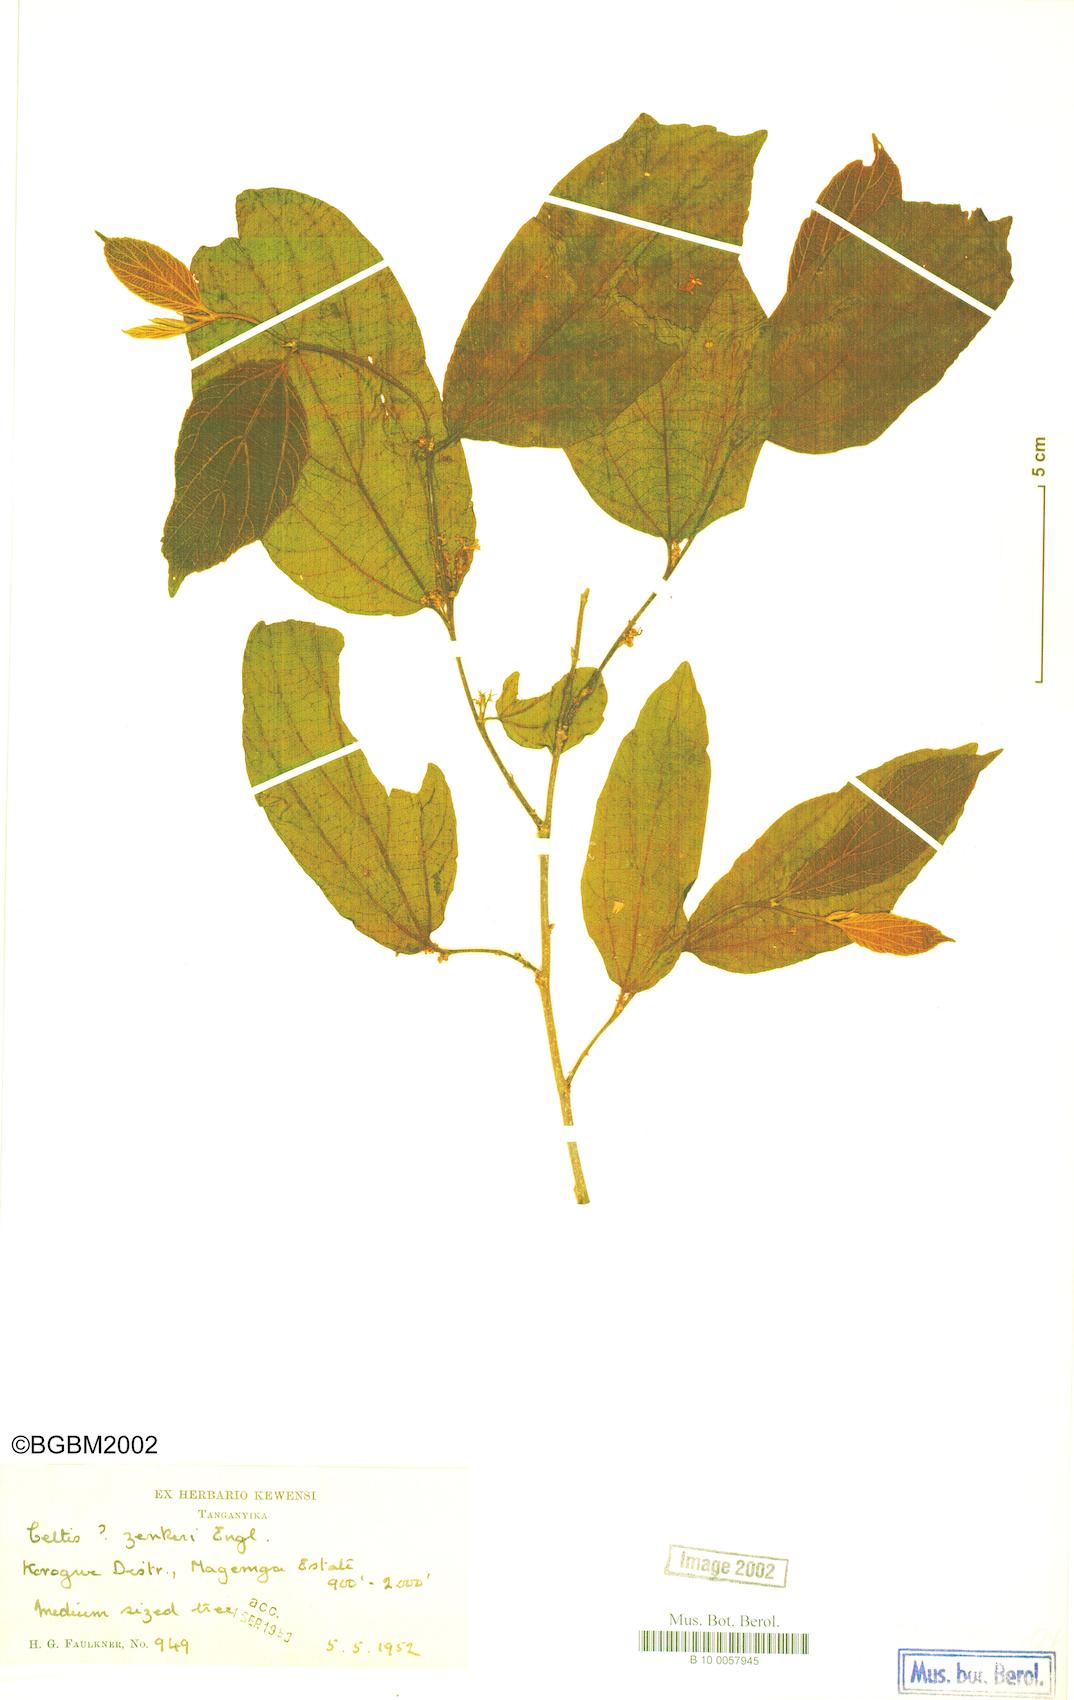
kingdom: Plantae
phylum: Tracheophyta
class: Magnoliopsida
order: Rosales
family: Cannabaceae
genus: Celtis
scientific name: Celtis zenkeri
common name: African celtis
